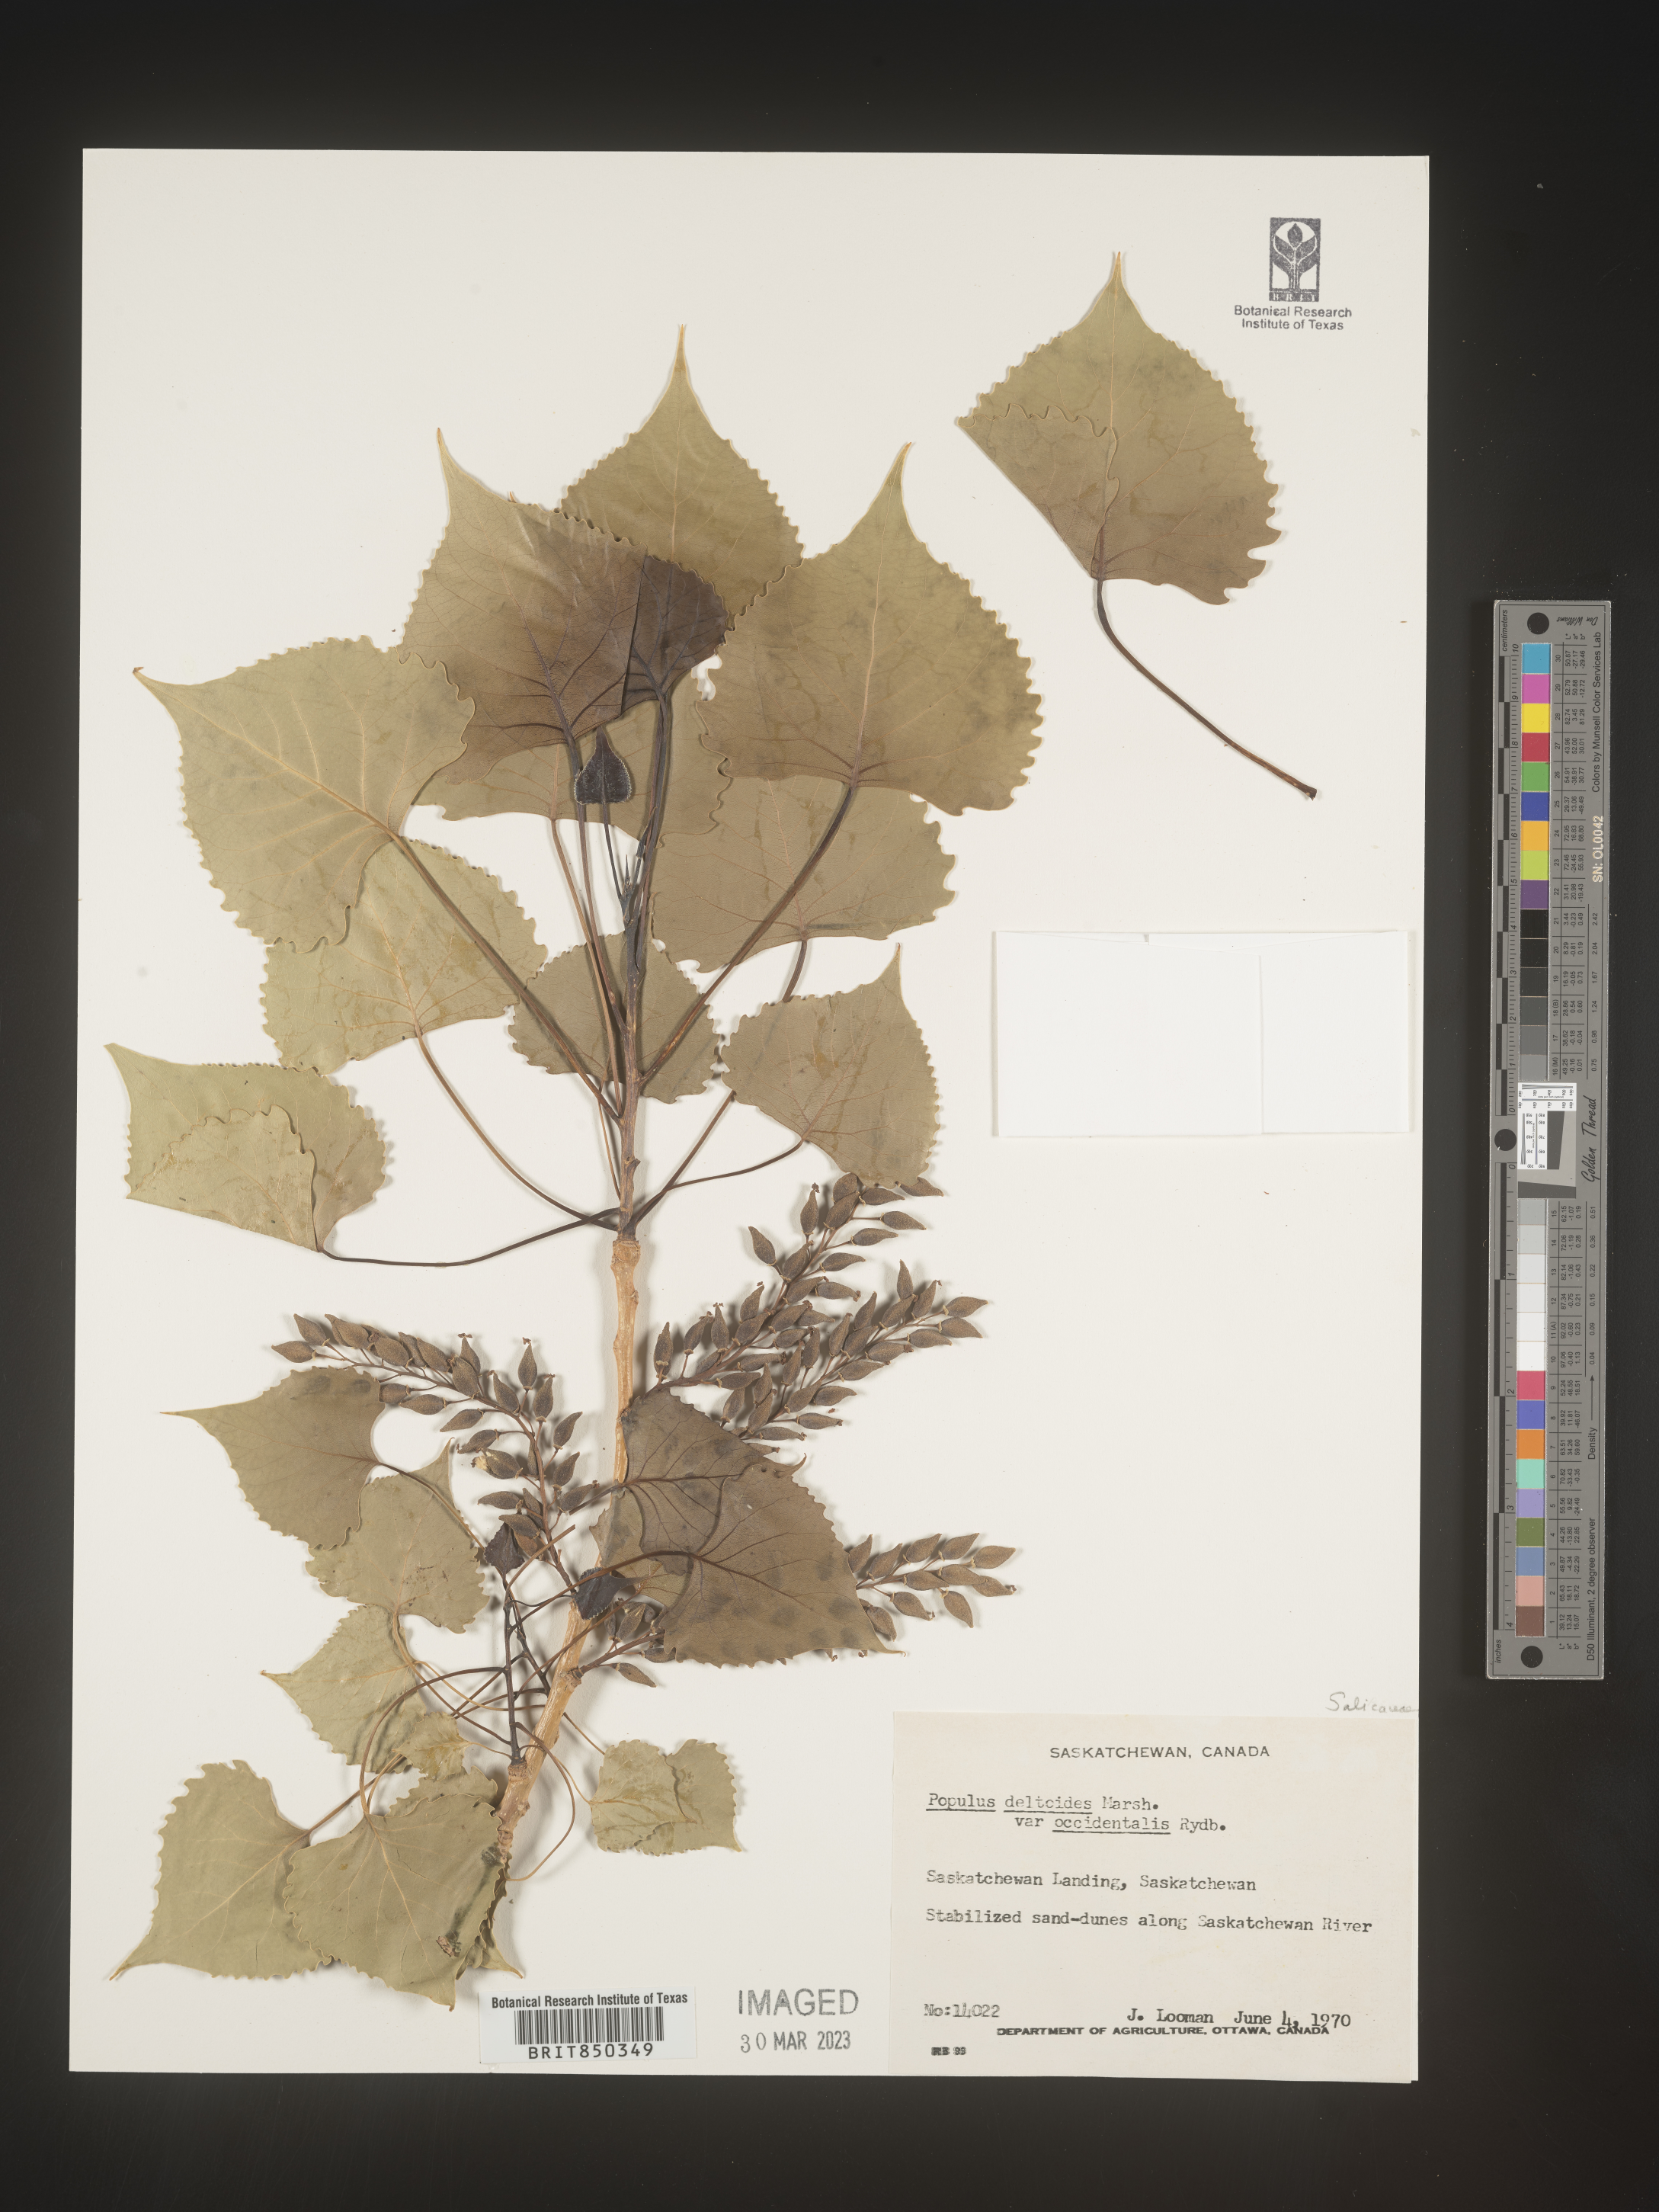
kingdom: Plantae
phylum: Tracheophyta
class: Magnoliopsida
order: Malpighiales
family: Salicaceae
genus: Populus
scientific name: Populus deltoides
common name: Eastern cottonwood
